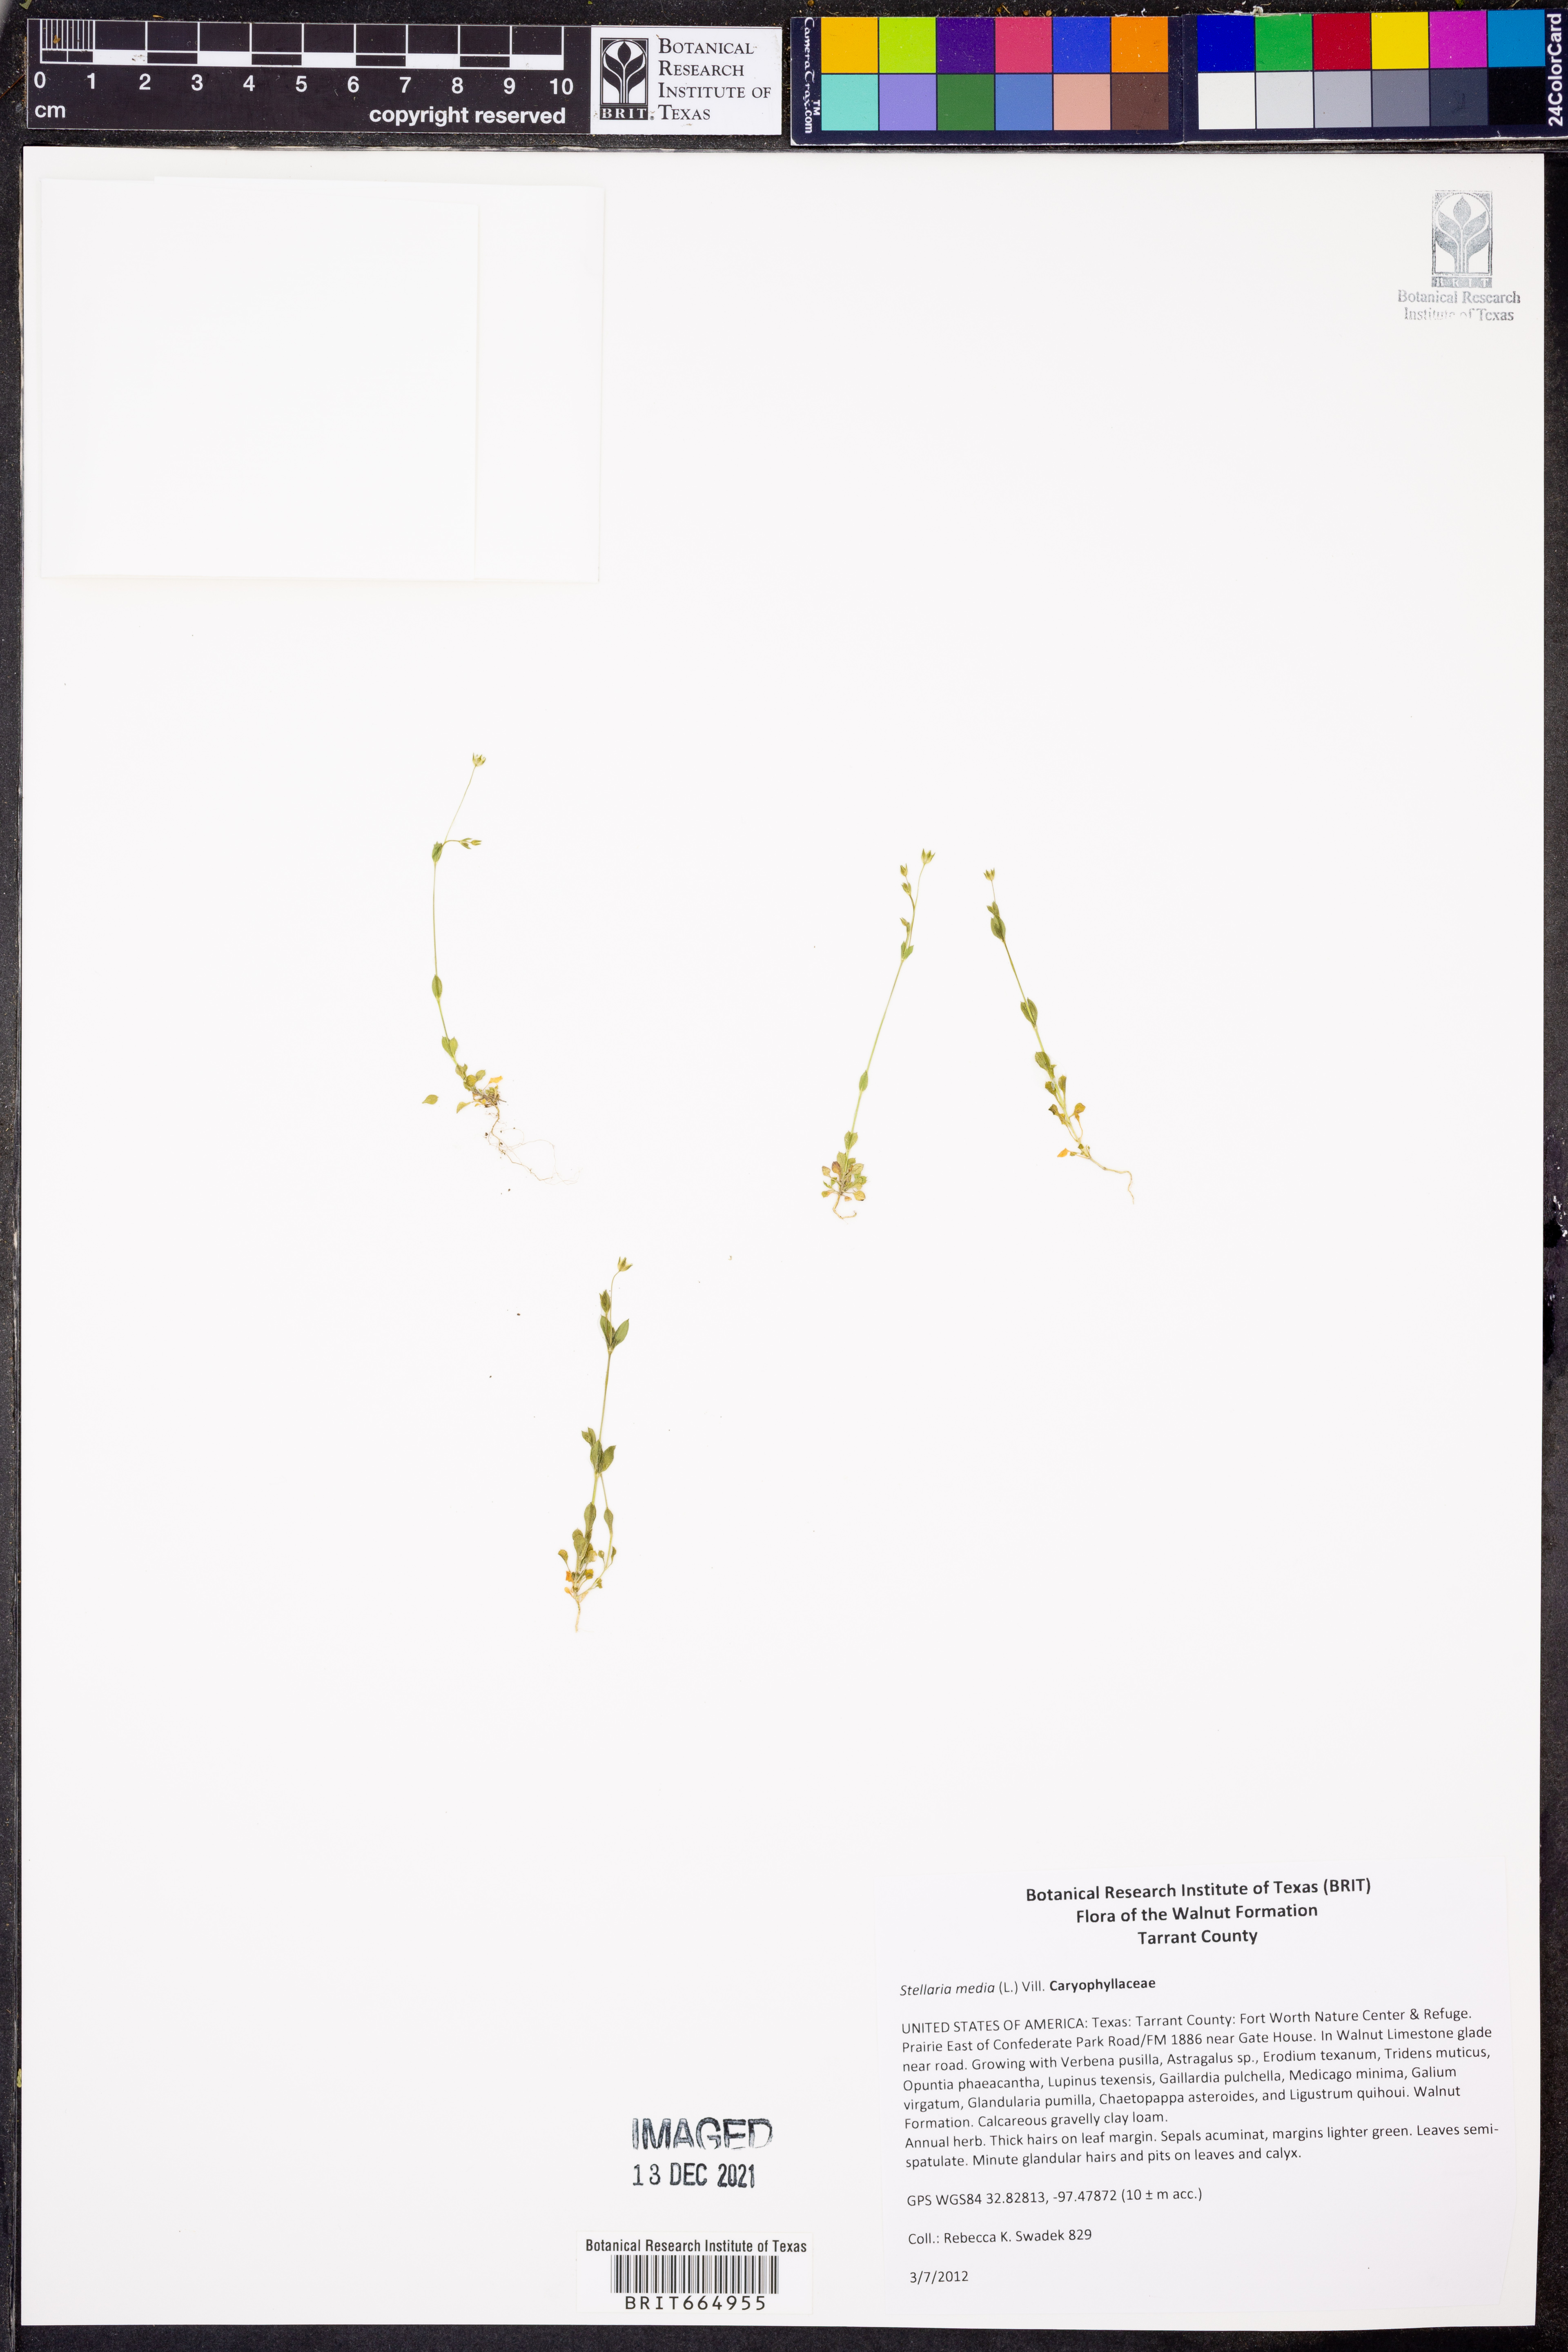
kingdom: Plantae
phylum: Tracheophyta
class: Magnoliopsida
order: Caryophyllales
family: Caryophyllaceae
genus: Stellaria
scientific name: Stellaria media
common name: Common chickweed
